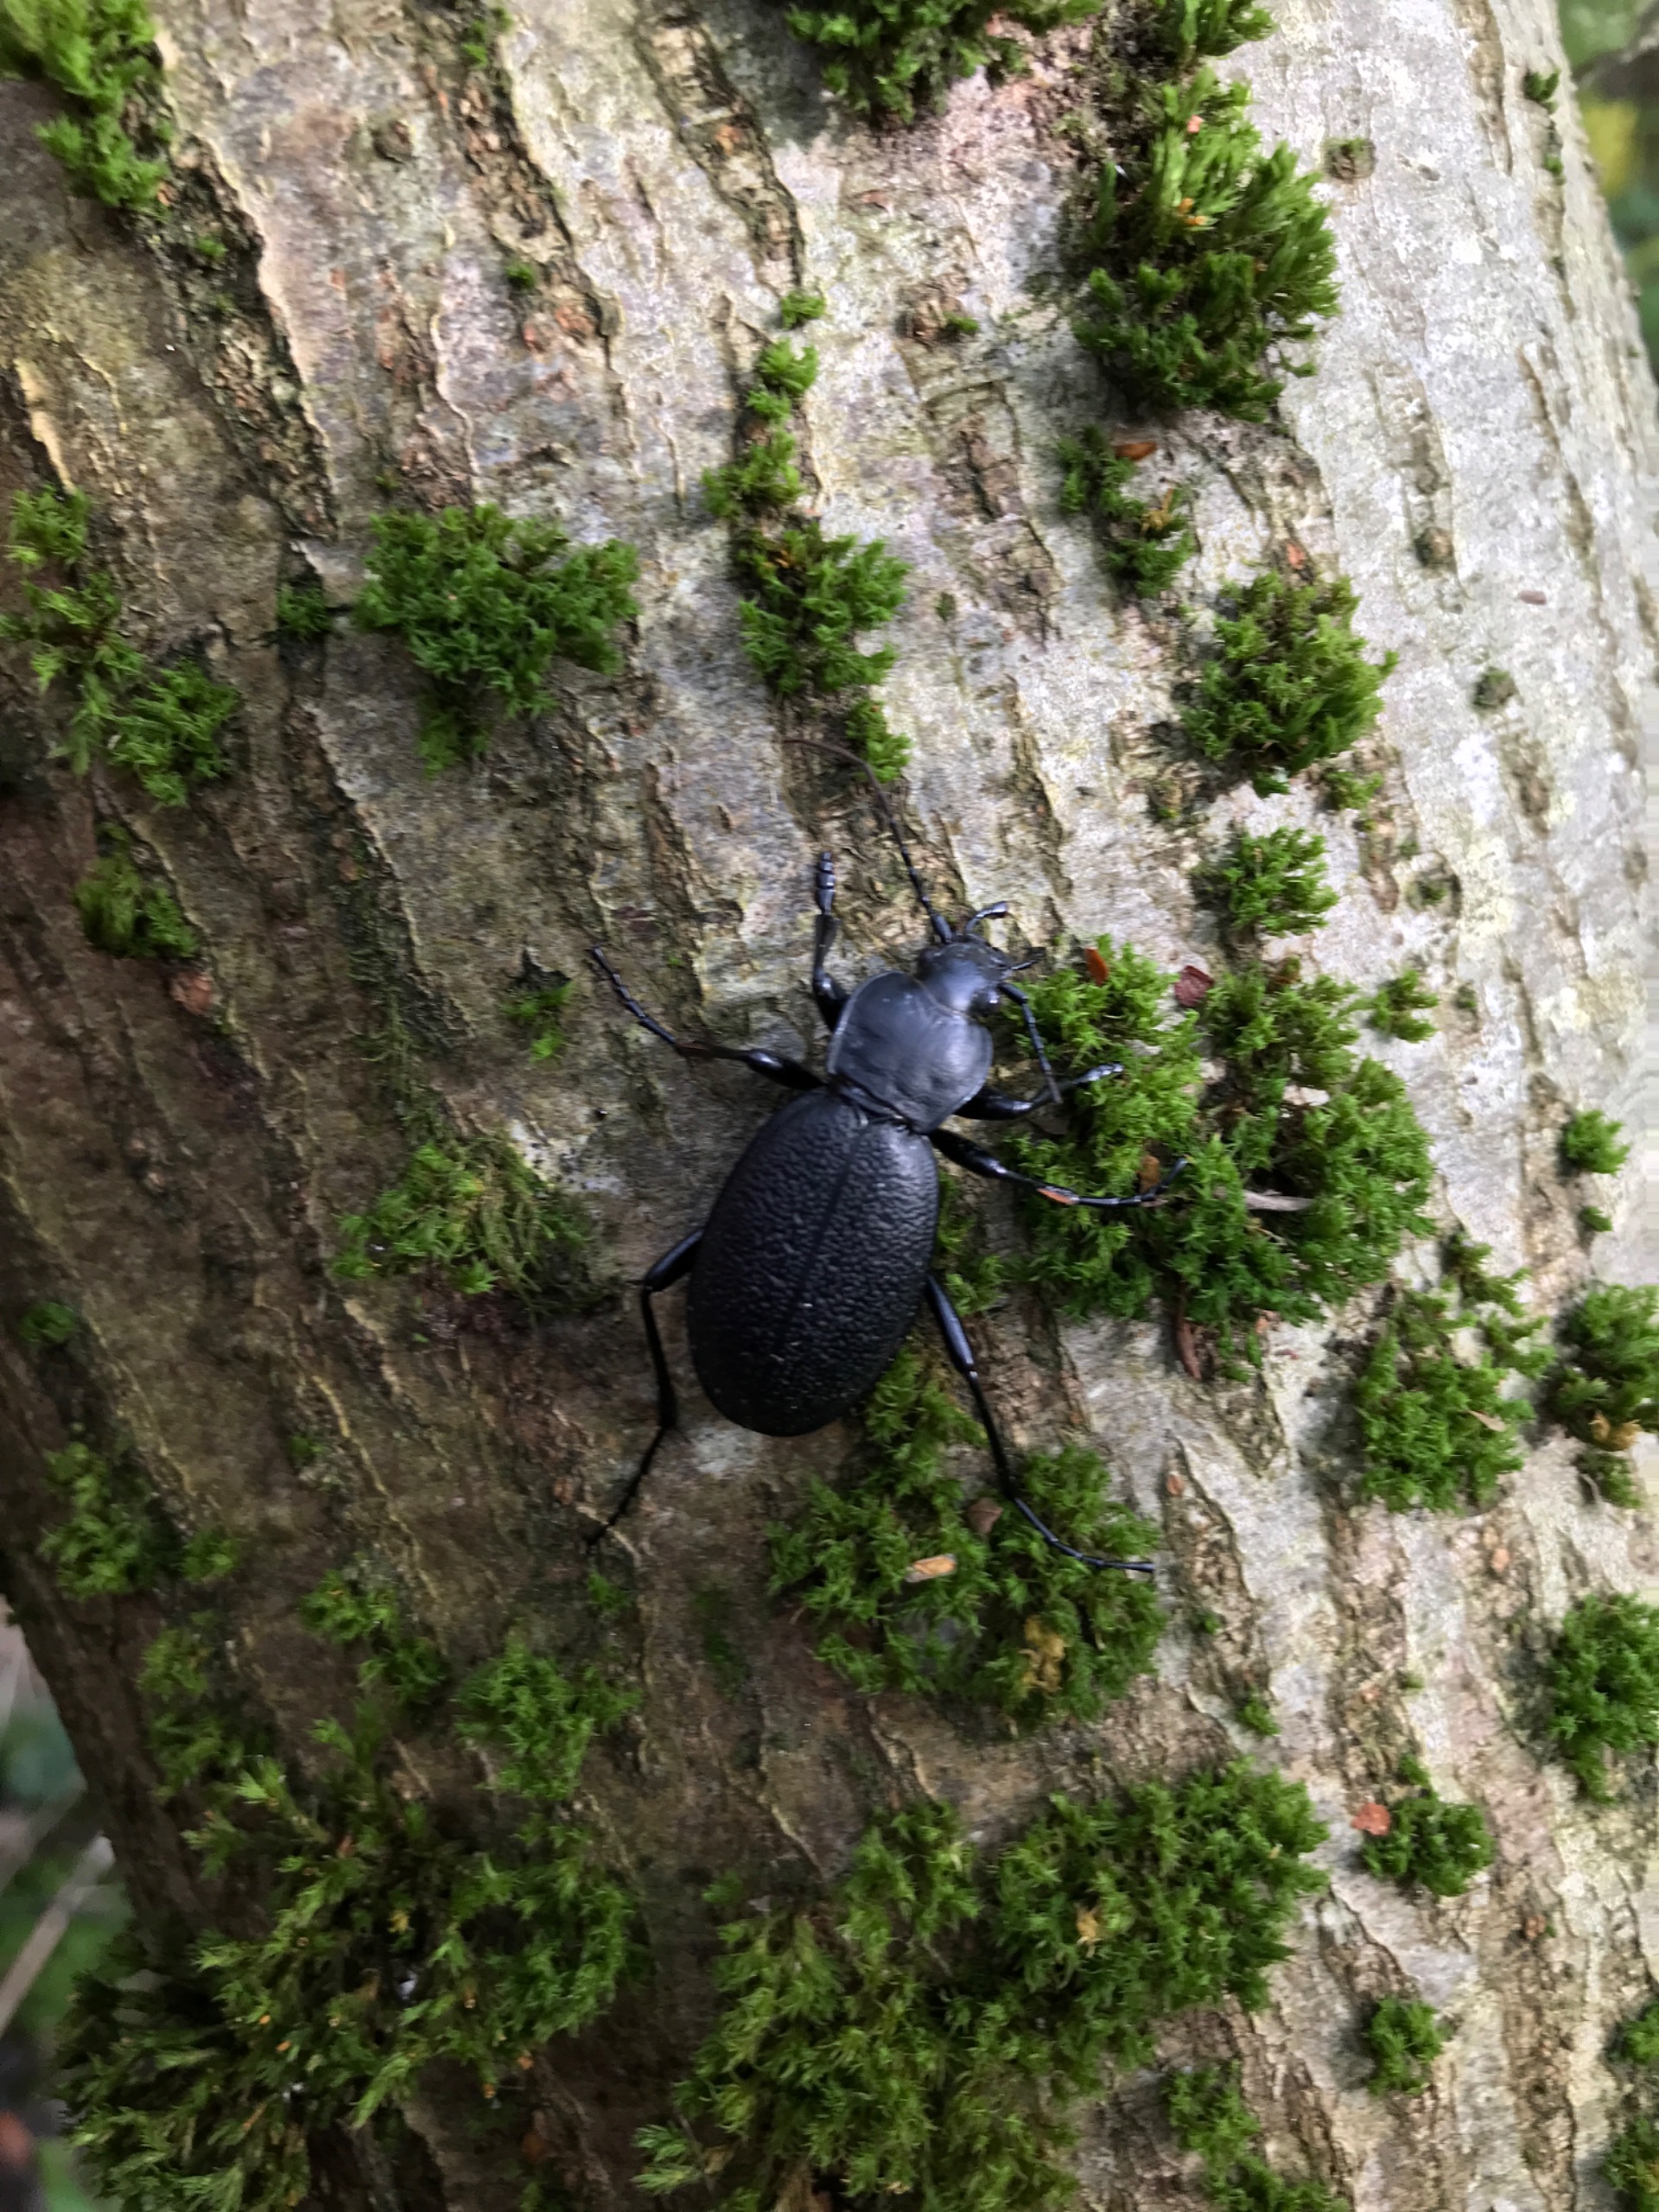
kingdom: Animalia
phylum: Arthropoda
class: Insecta
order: Coleoptera
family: Carabidae
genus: Carabus
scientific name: Carabus coriaceus
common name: Læderløber
